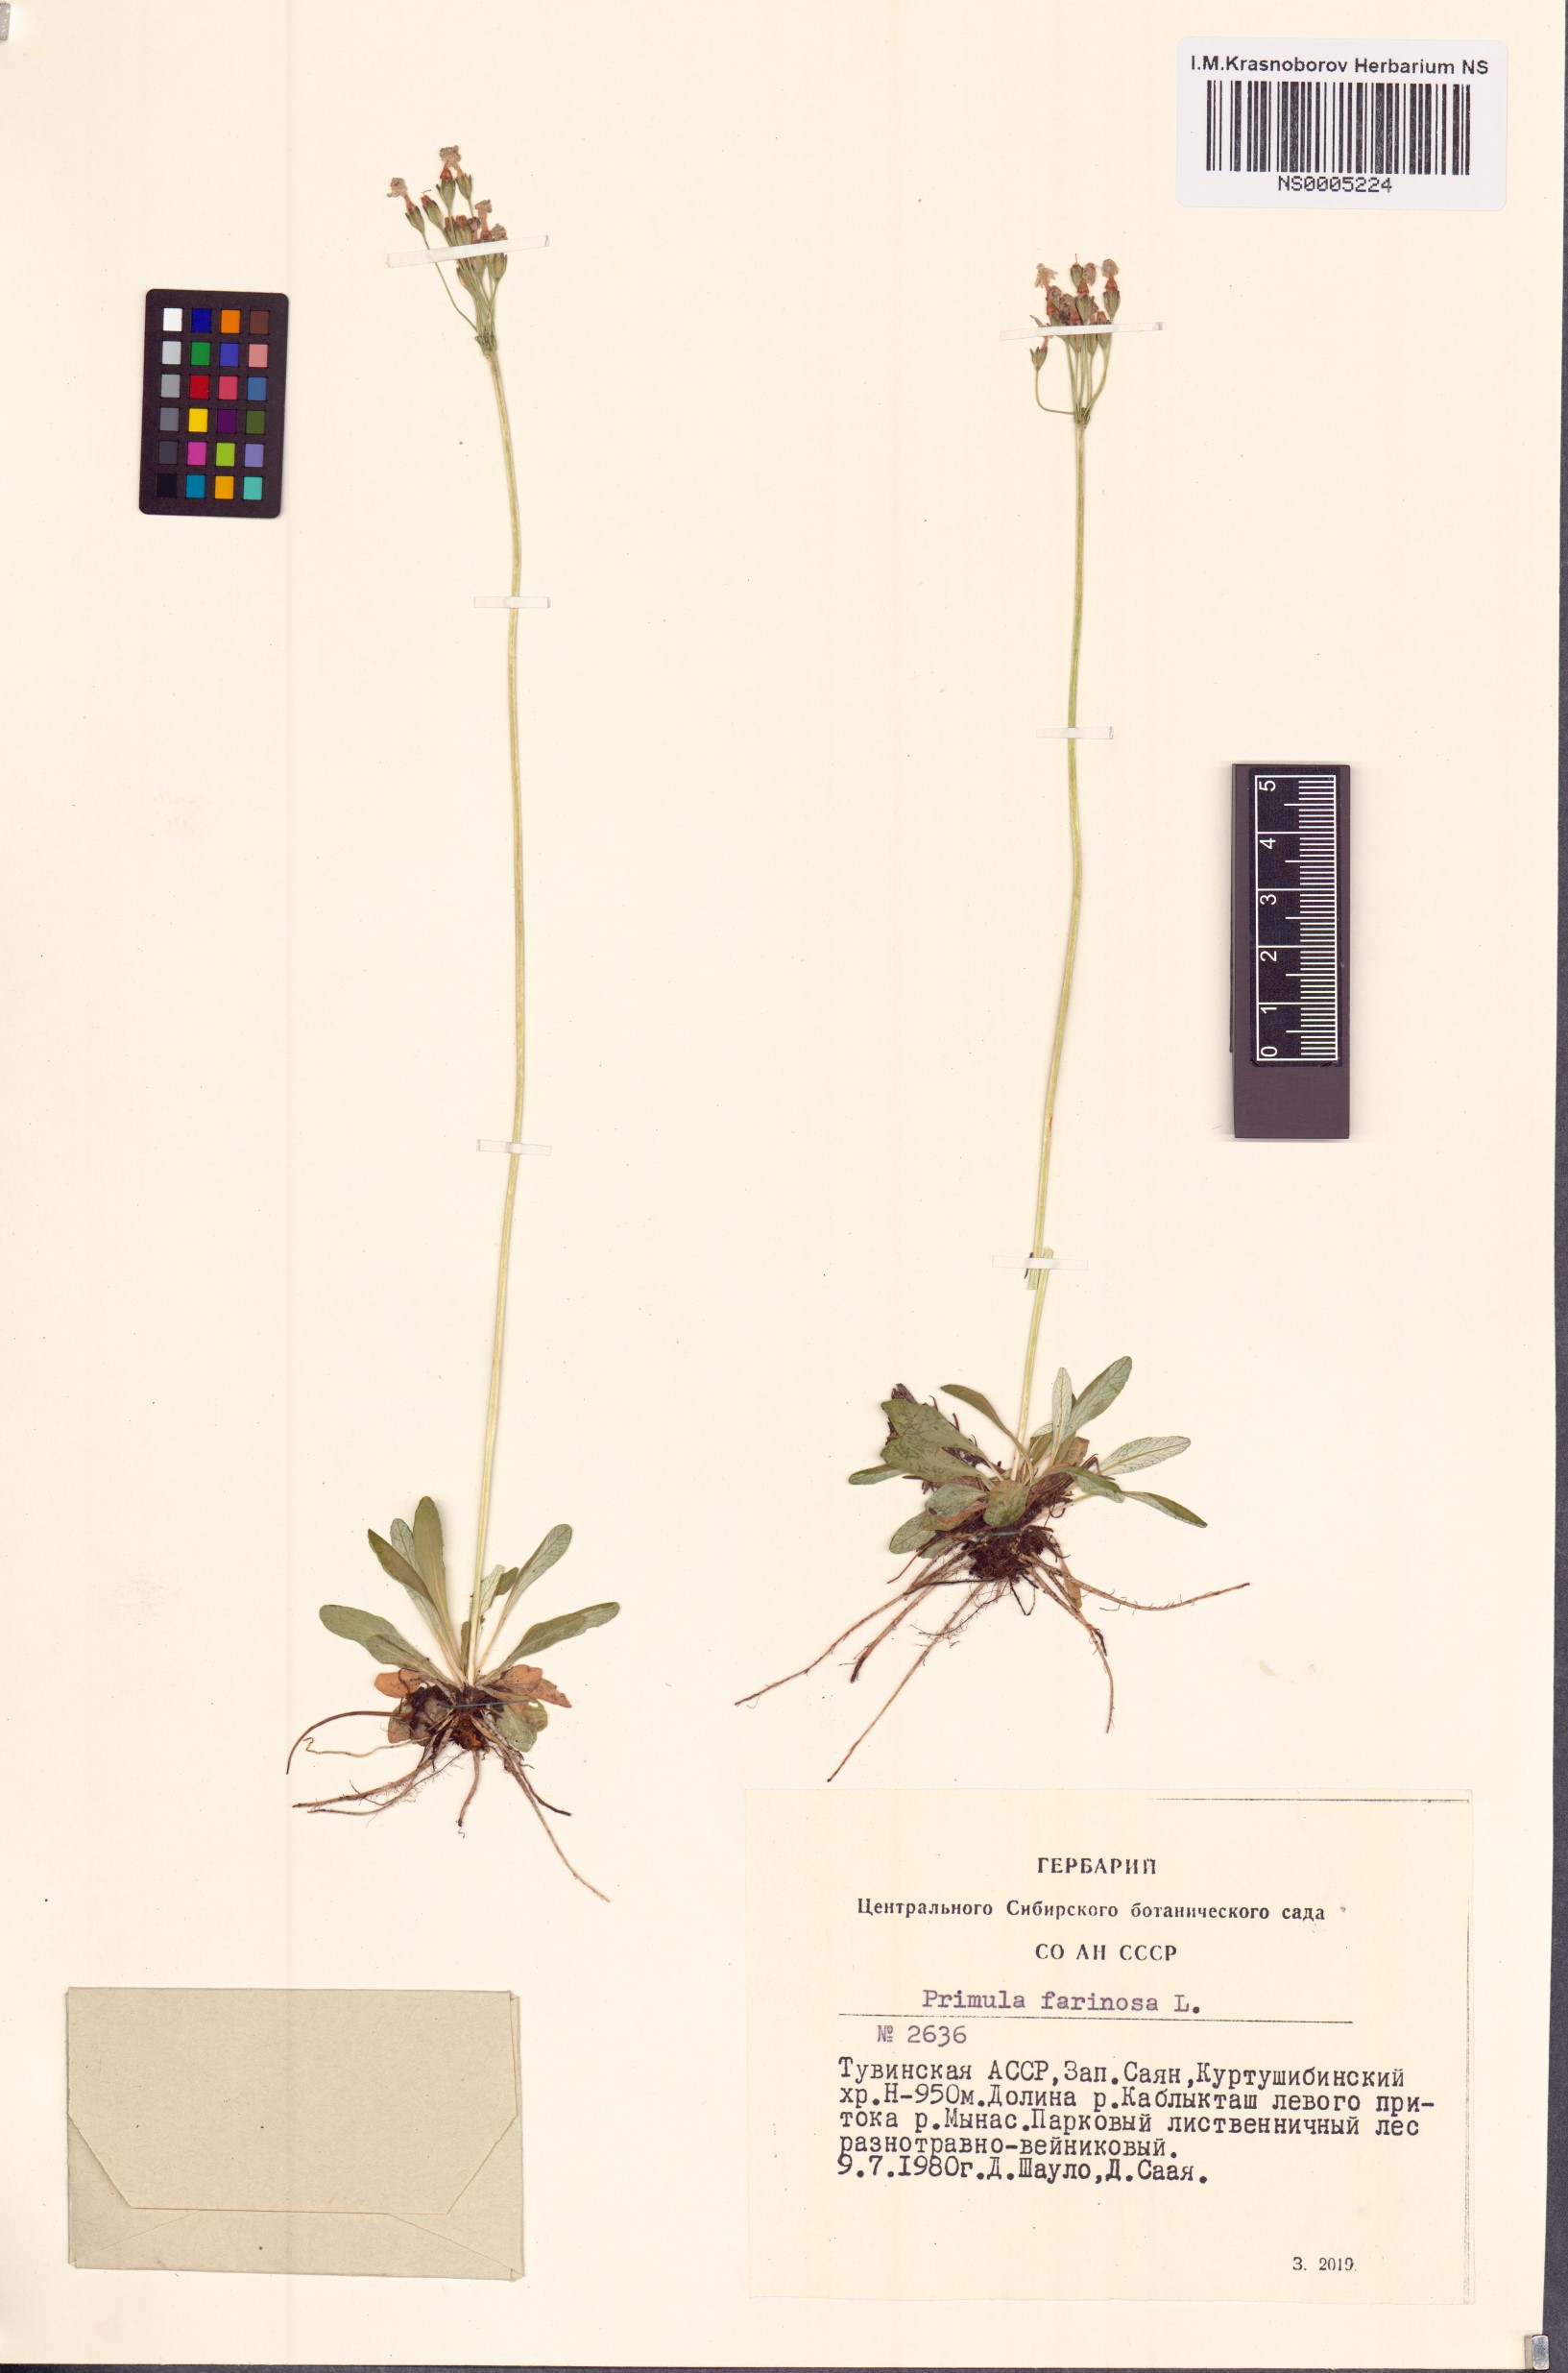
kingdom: Plantae
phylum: Tracheophyta
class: Magnoliopsida
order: Ericales
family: Primulaceae
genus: Primula
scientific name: Primula farinosa
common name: Bird's-eye primrose
